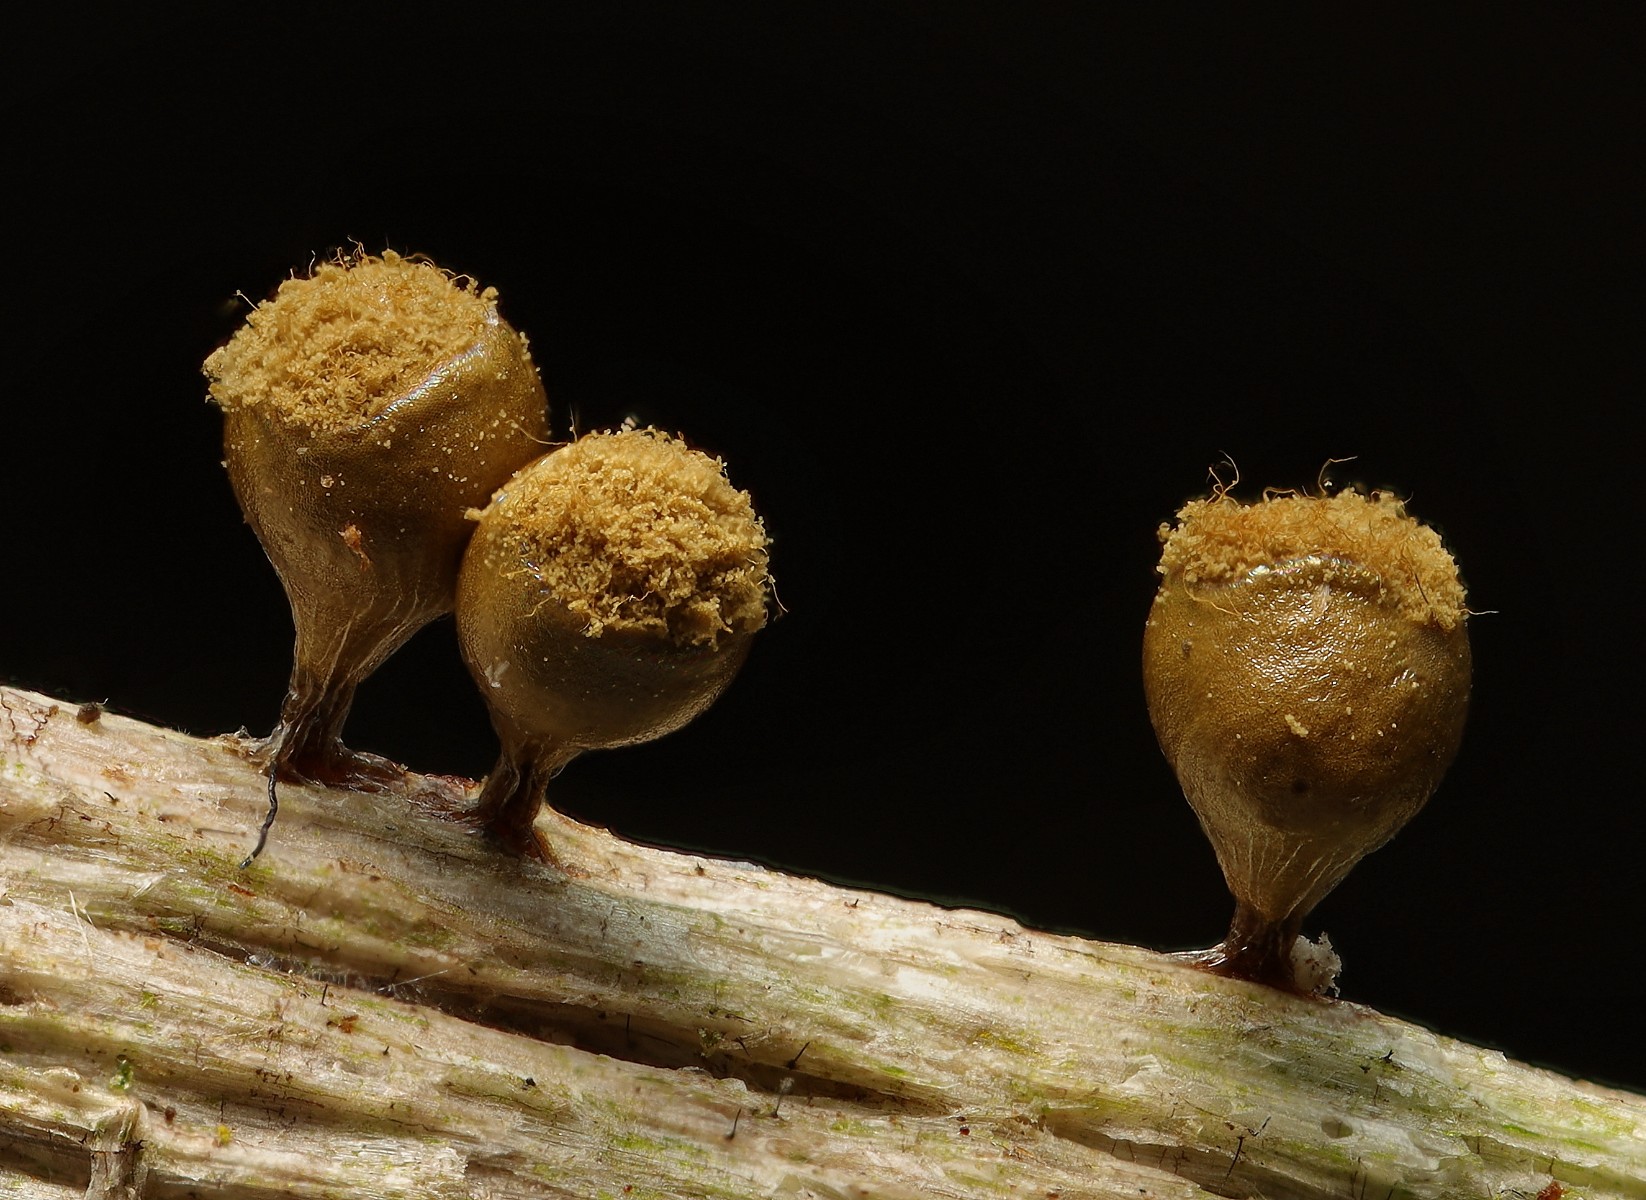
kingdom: Protozoa
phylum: Mycetozoa
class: Myxomycetes
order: Trichiales
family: Trichiaceae
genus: Trichia
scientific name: Trichia crateriformis
